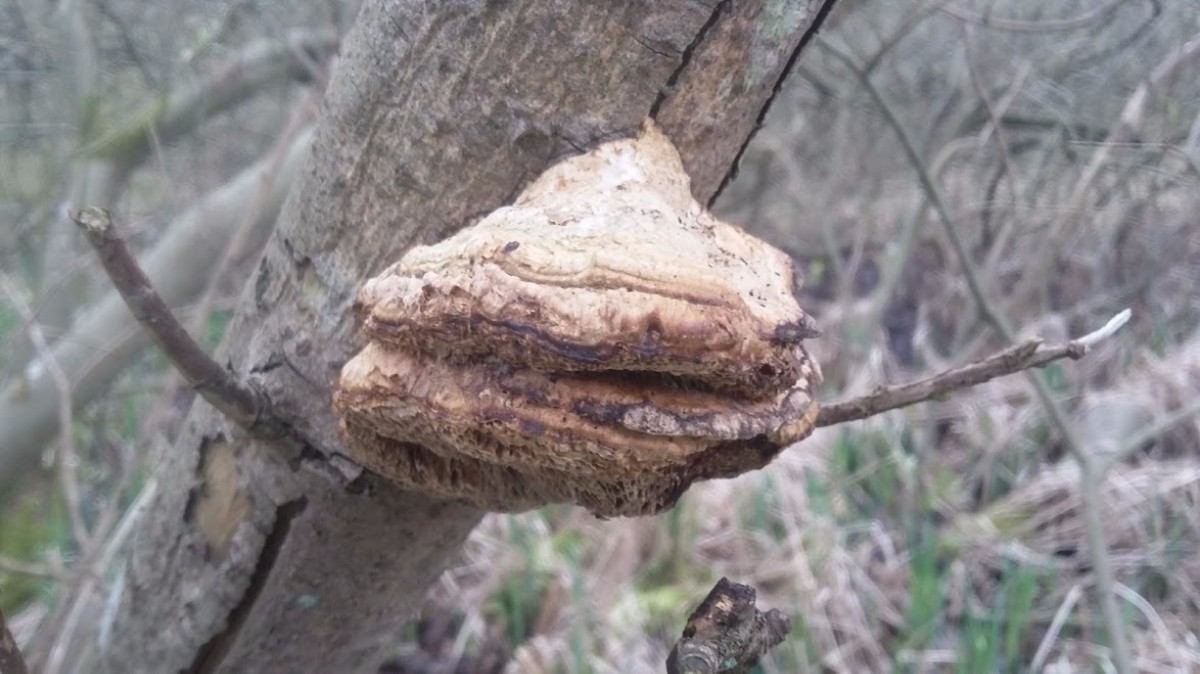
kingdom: Fungi
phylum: Basidiomycota
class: Agaricomycetes
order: Polyporales
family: Polyporaceae
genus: Daedaleopsis
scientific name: Daedaleopsis confragosa
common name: rødmende læderporesvamp
